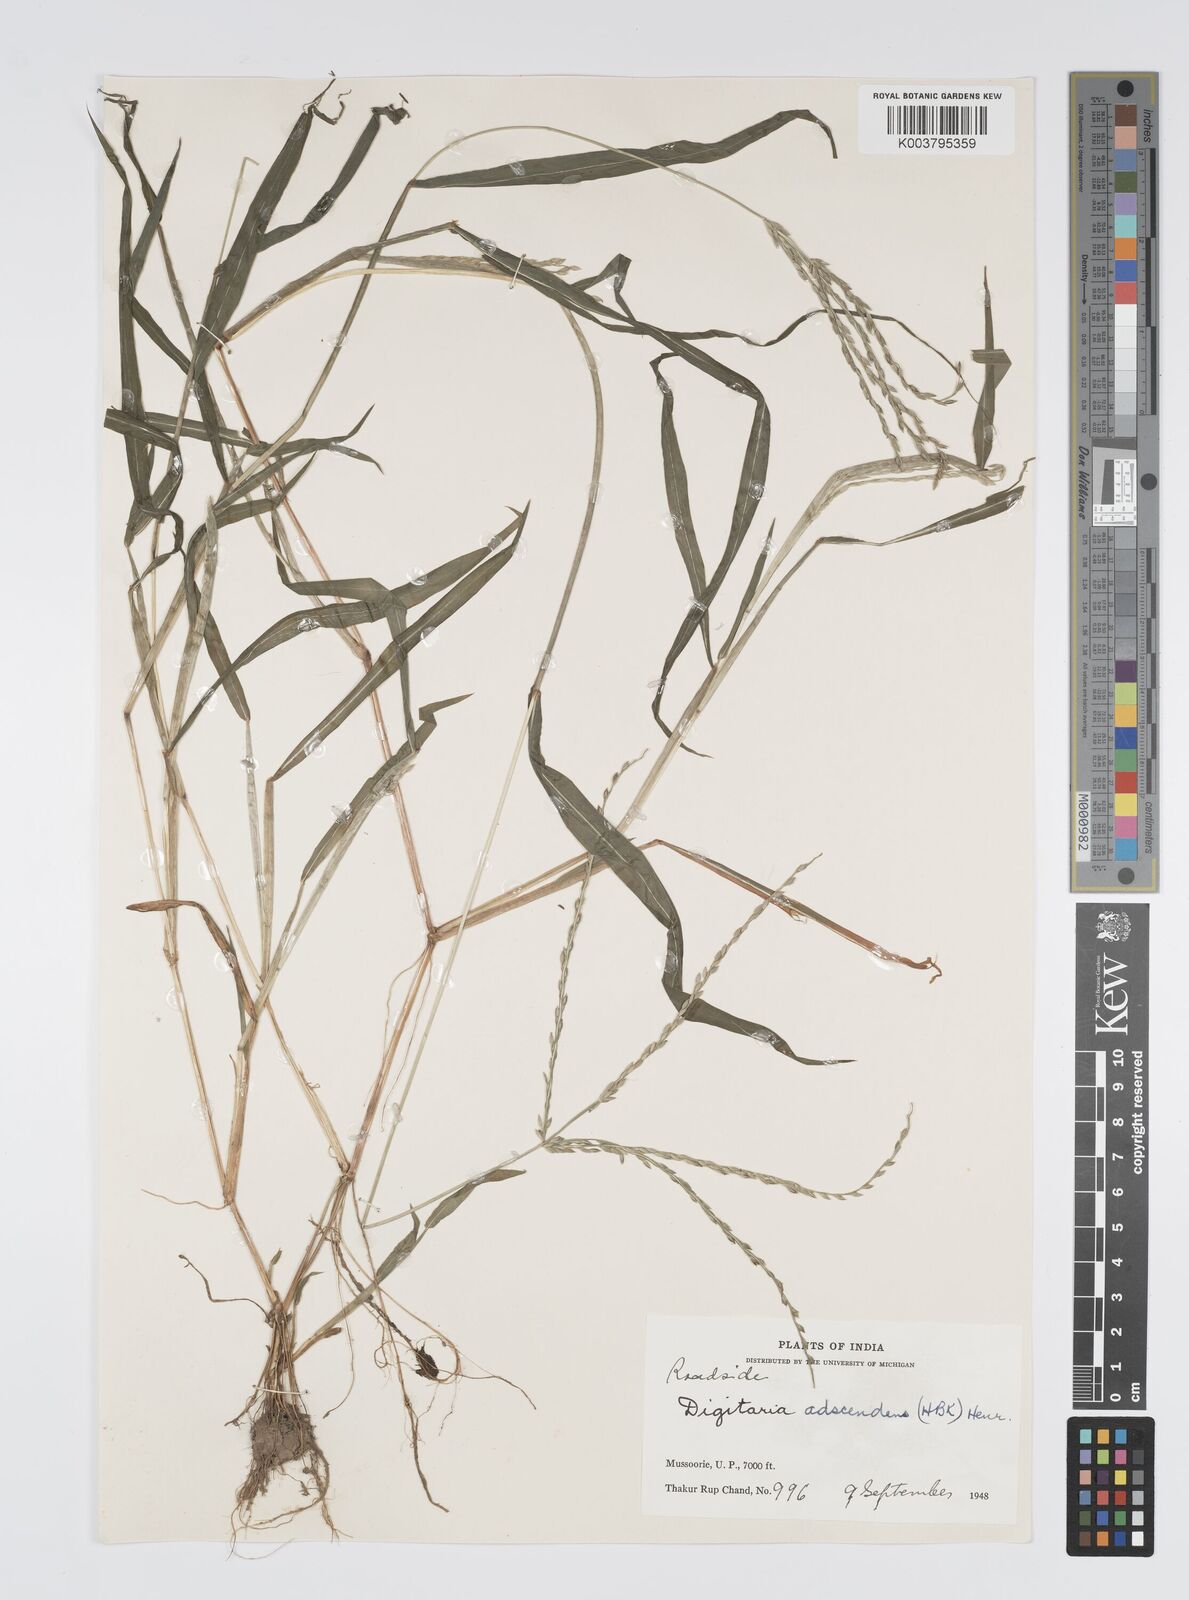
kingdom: Plantae
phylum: Tracheophyta
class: Liliopsida
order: Poales
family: Poaceae
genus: Digitaria
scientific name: Digitaria ciliaris
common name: Tropical finger-grass
